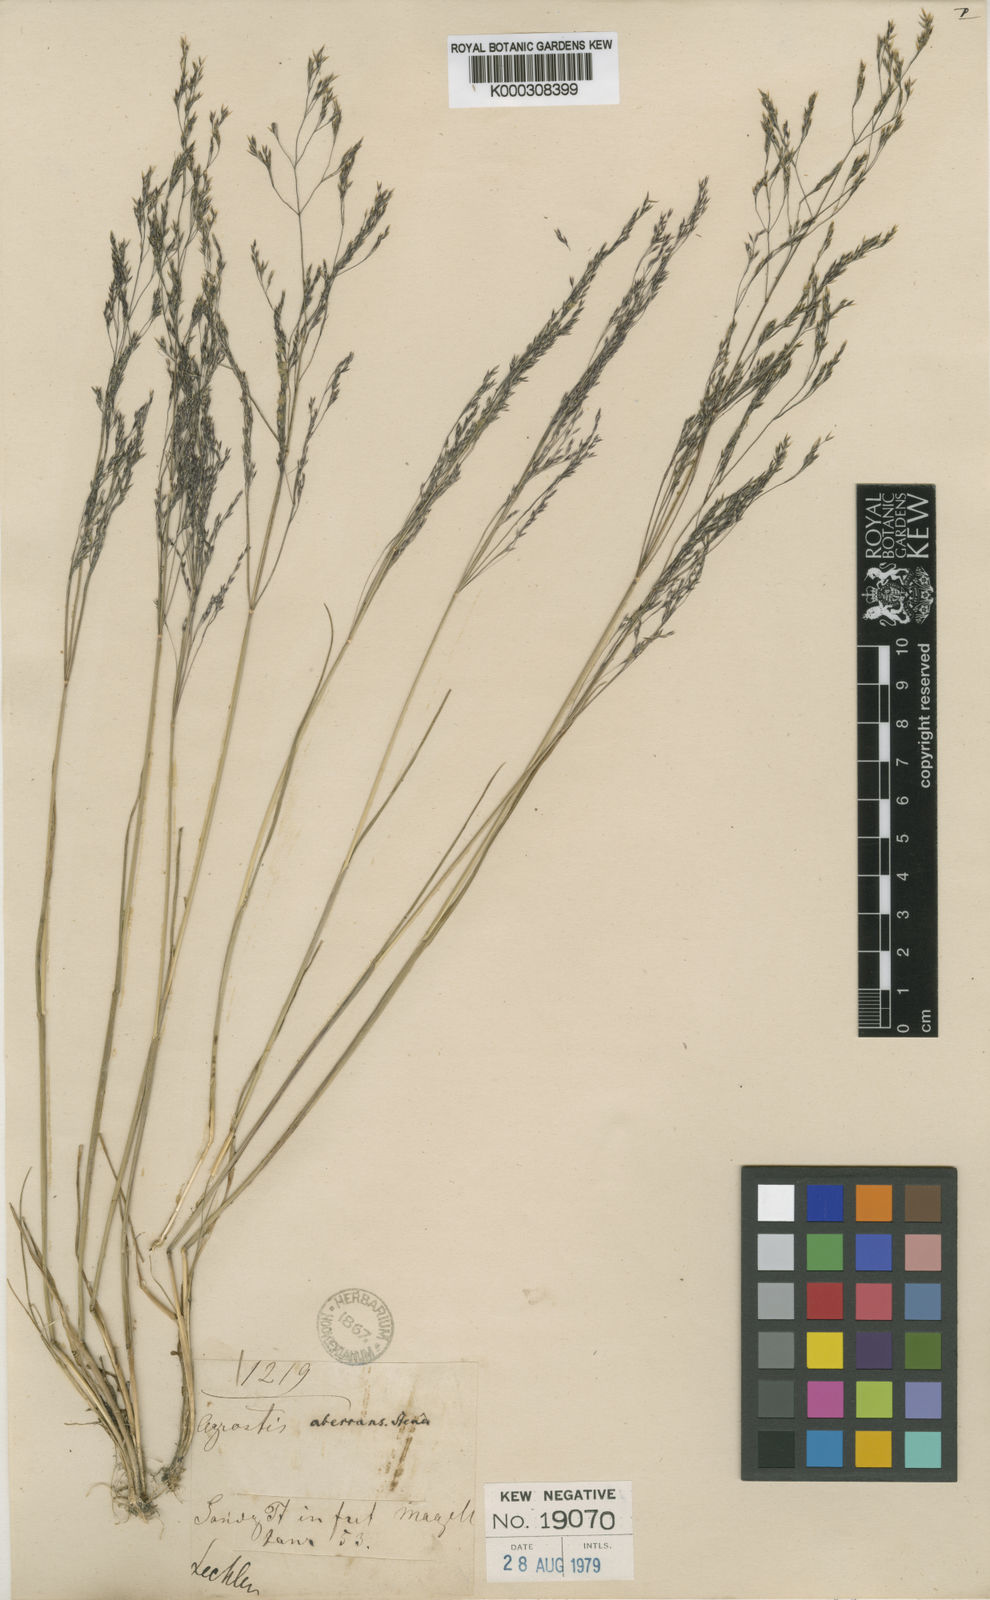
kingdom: Plantae
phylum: Tracheophyta
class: Liliopsida
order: Poales
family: Poaceae
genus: Agrostis
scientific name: Agrostis perennans
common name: Autumn bent
